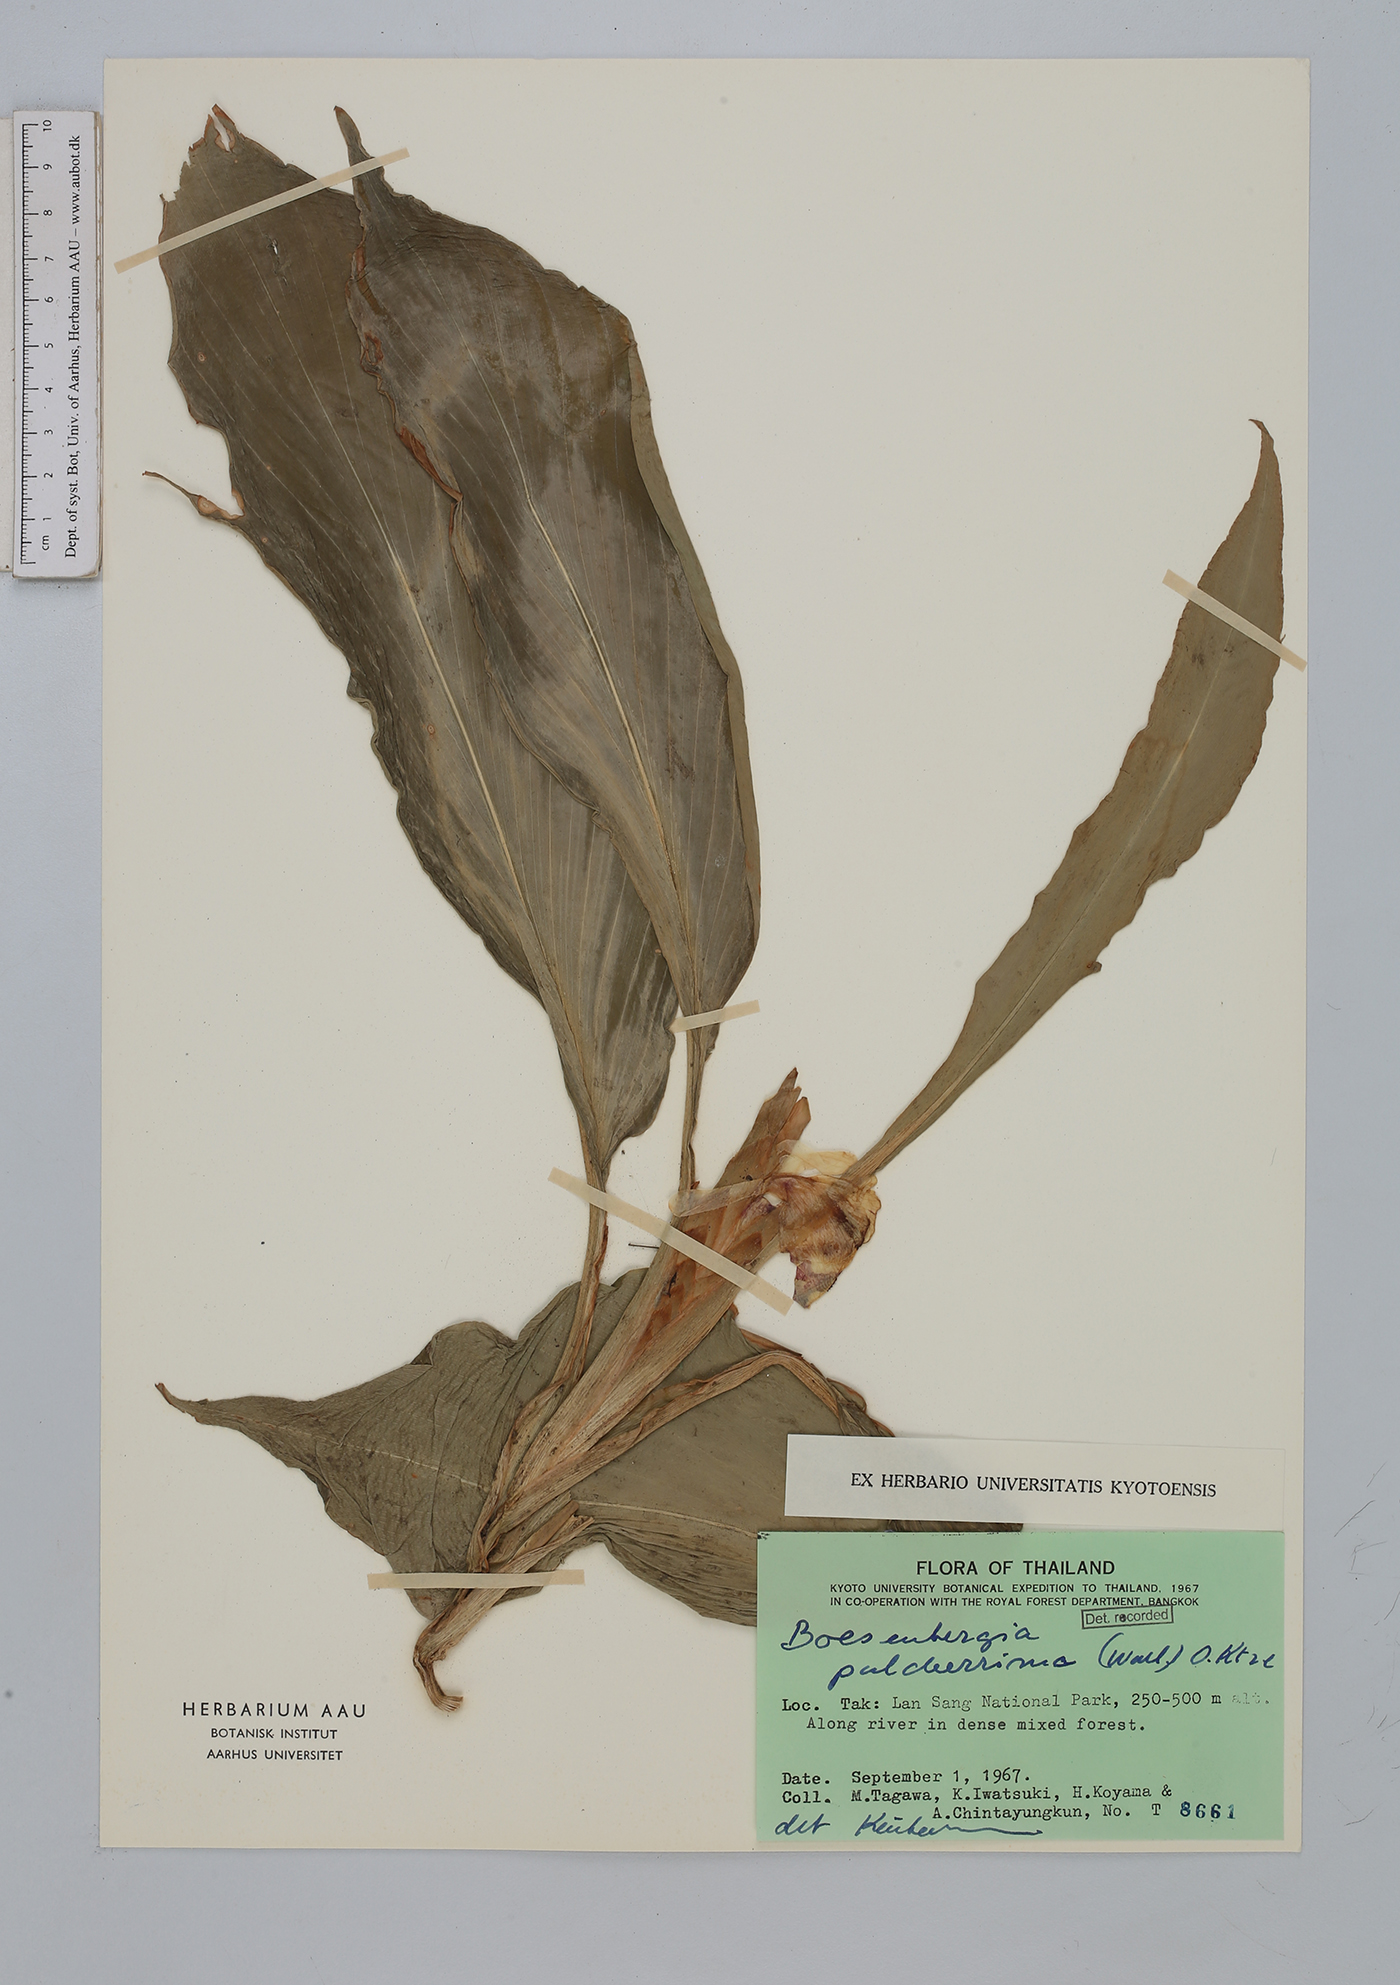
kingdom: Plantae
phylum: Tracheophyta
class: Liliopsida
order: Zingiberales
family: Zingiberaceae
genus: Boesenbergia
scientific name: Boesenbergia pulcherrima
